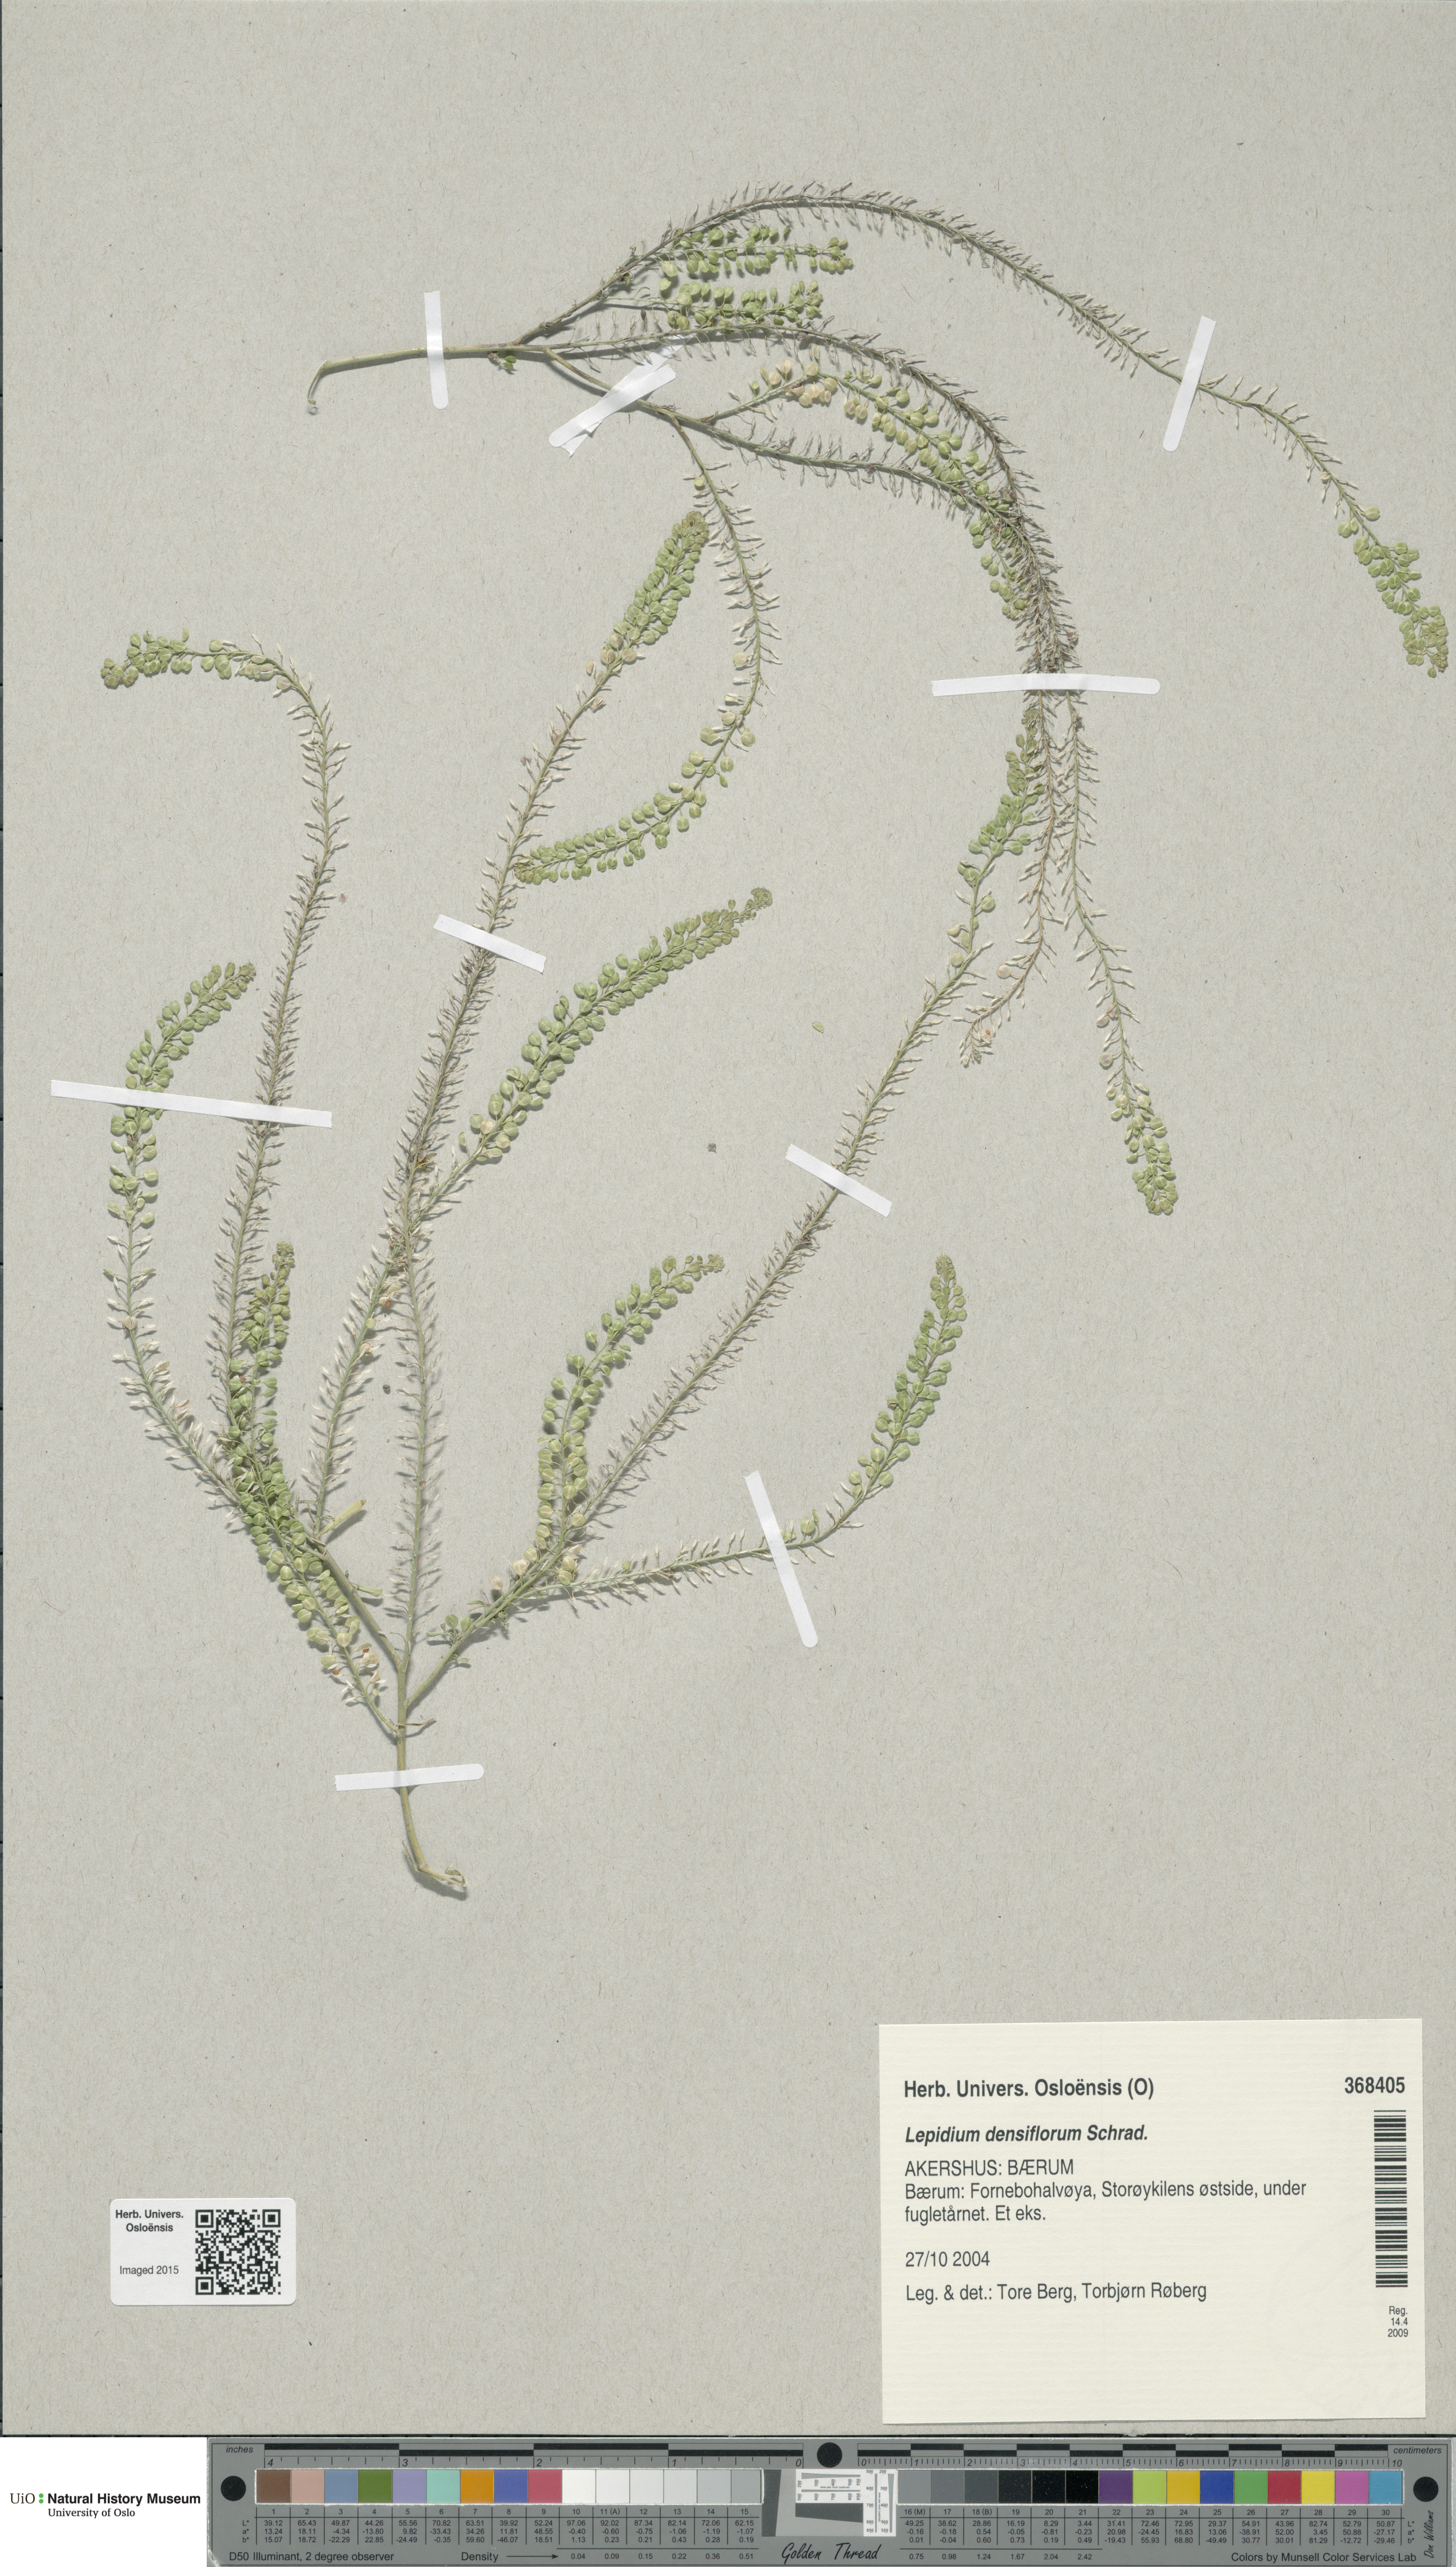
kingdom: Plantae
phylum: Tracheophyta
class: Magnoliopsida
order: Brassicales
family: Brassicaceae
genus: Lepidium
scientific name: Lepidium densiflorum
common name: Miner's pepperwort
